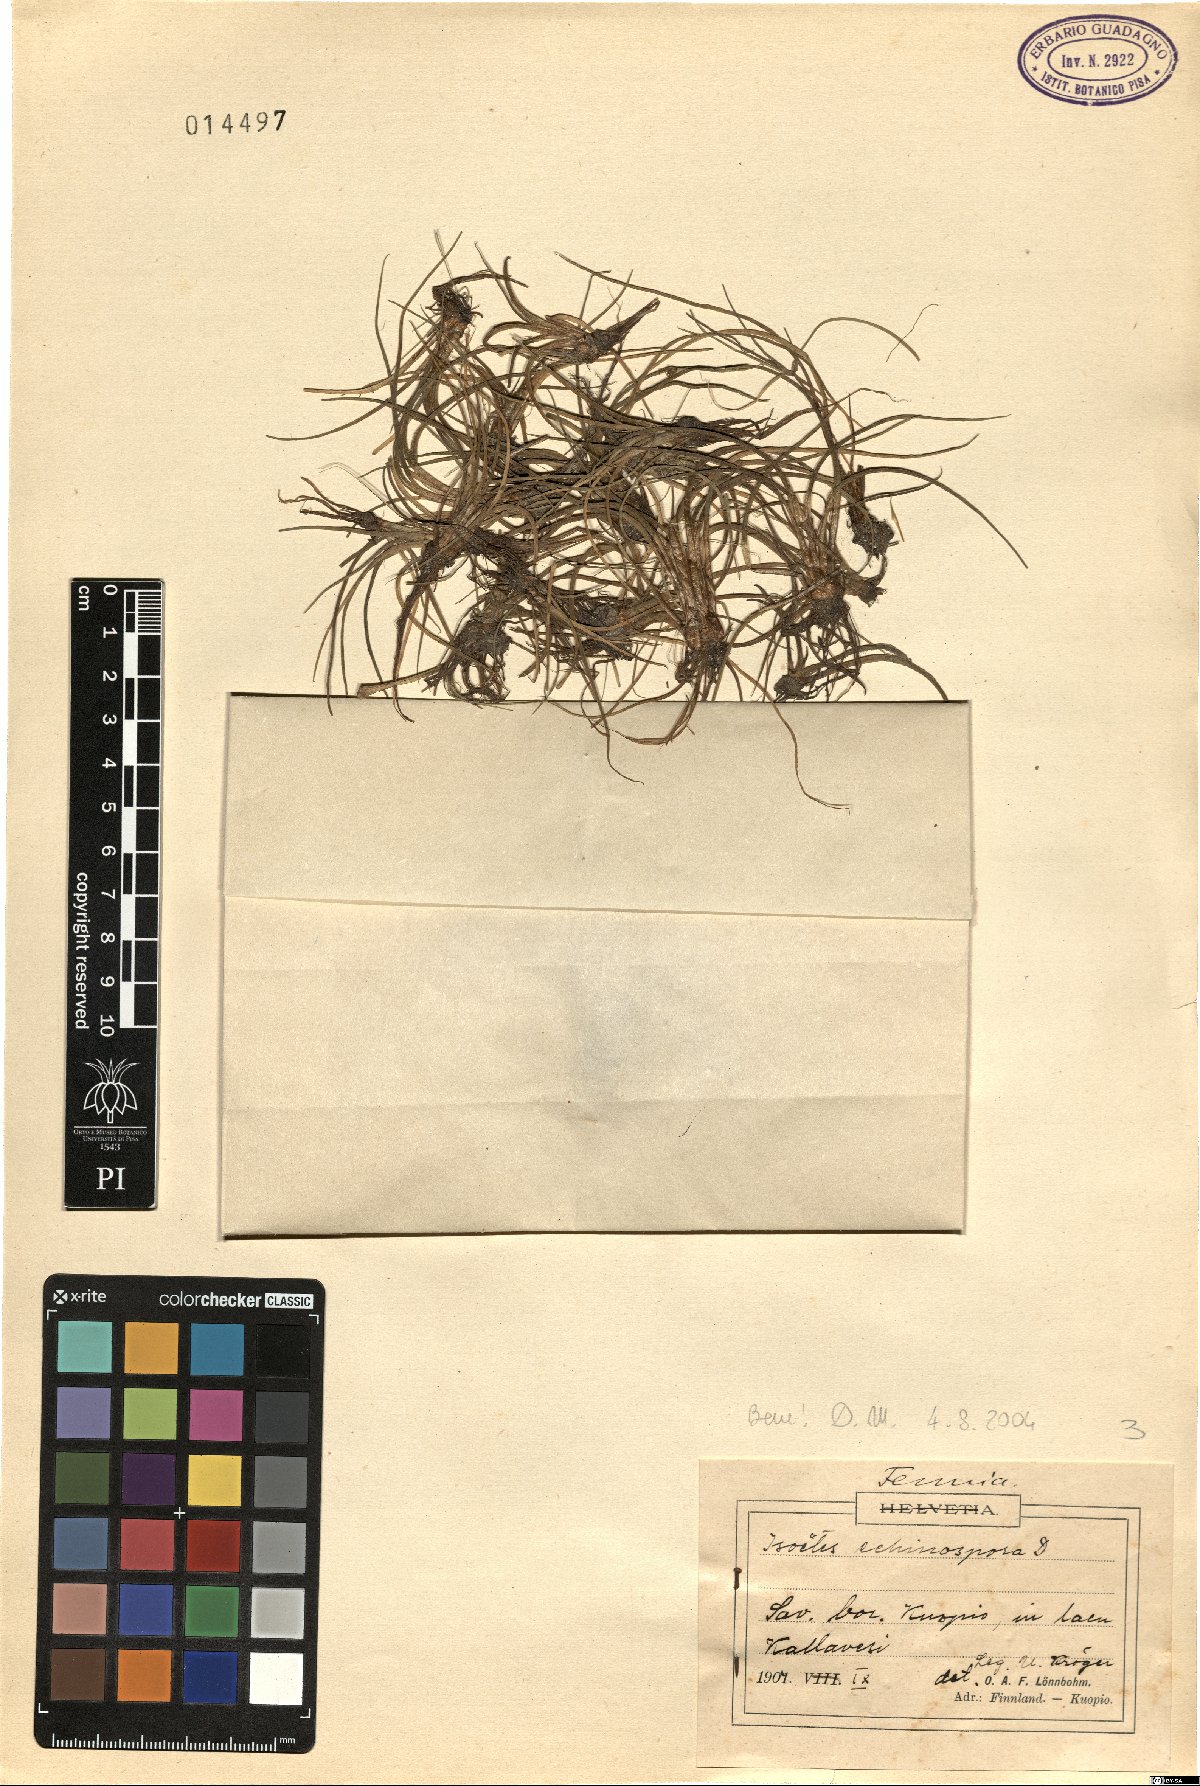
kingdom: Plantae
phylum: Tracheophyta
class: Lycopodiopsida
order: Isoetales
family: Isoetaceae
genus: Isoetes
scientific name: Isoetes echinospora
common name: Spring quillwort
